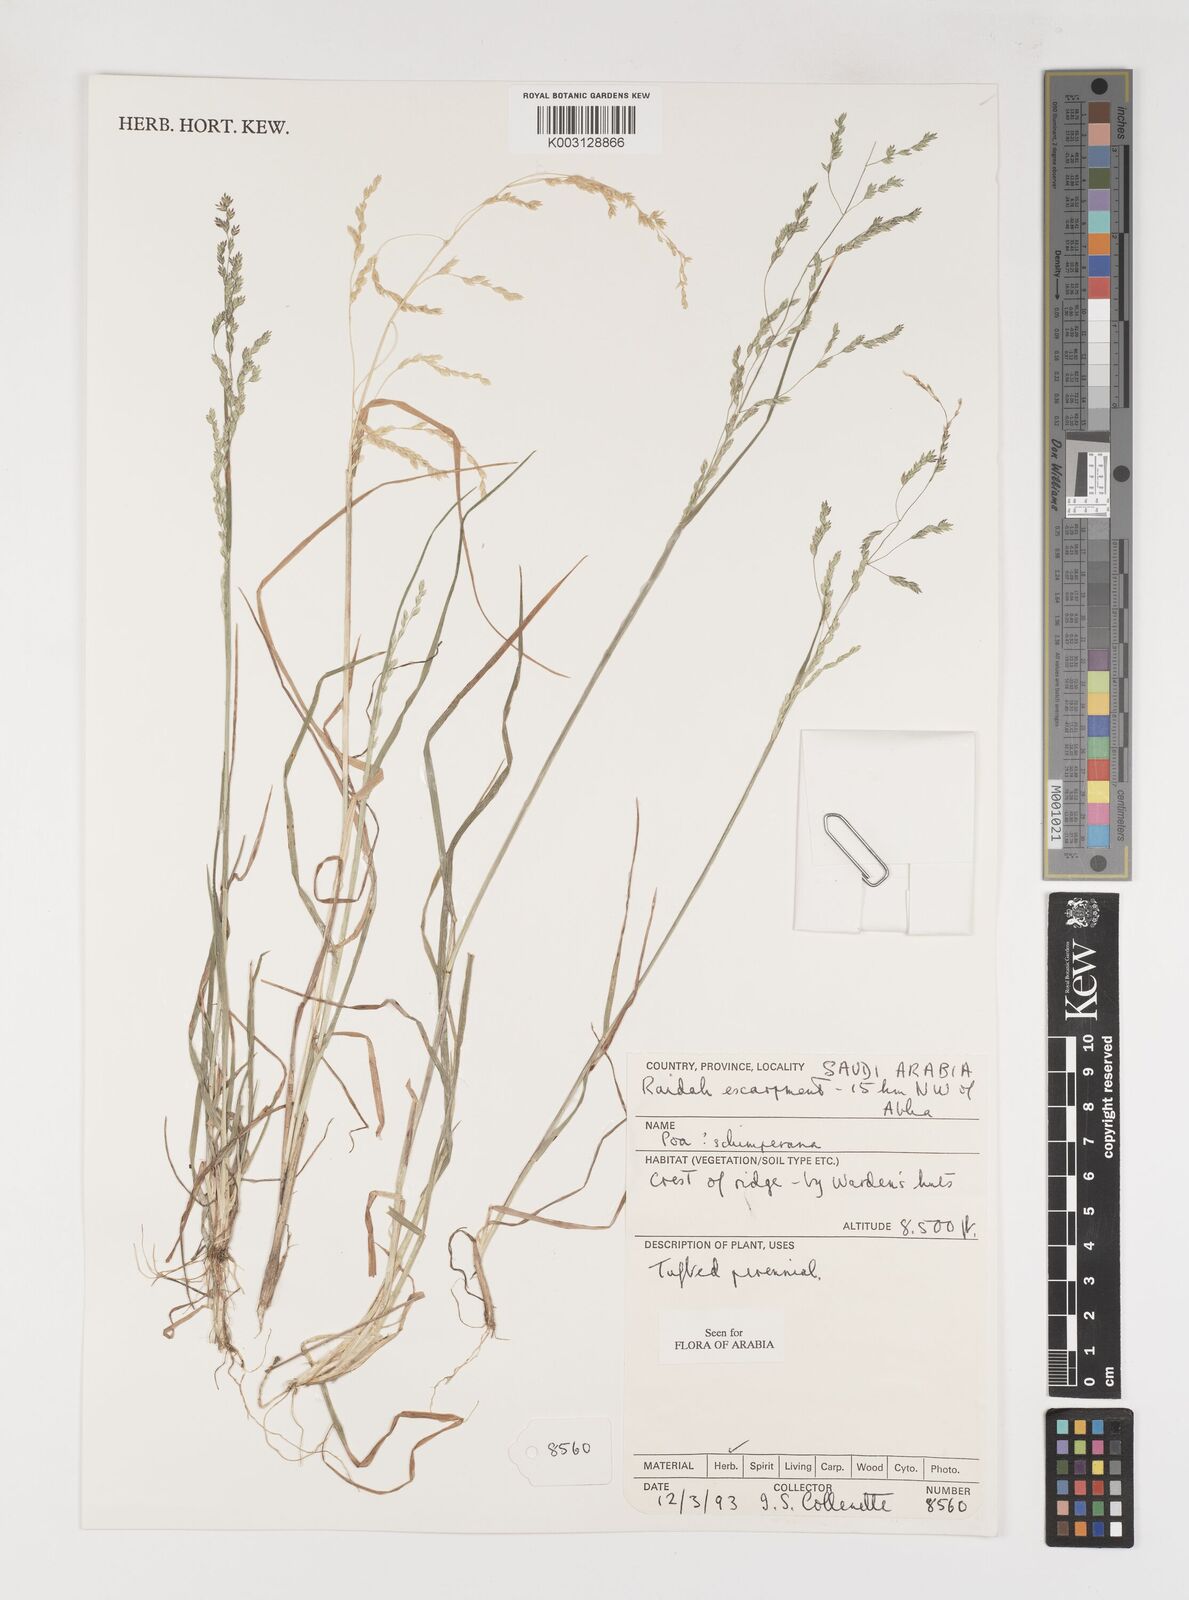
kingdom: Plantae
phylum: Tracheophyta
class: Liliopsida
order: Poales
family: Poaceae
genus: Poa
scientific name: Poa schimperiana
